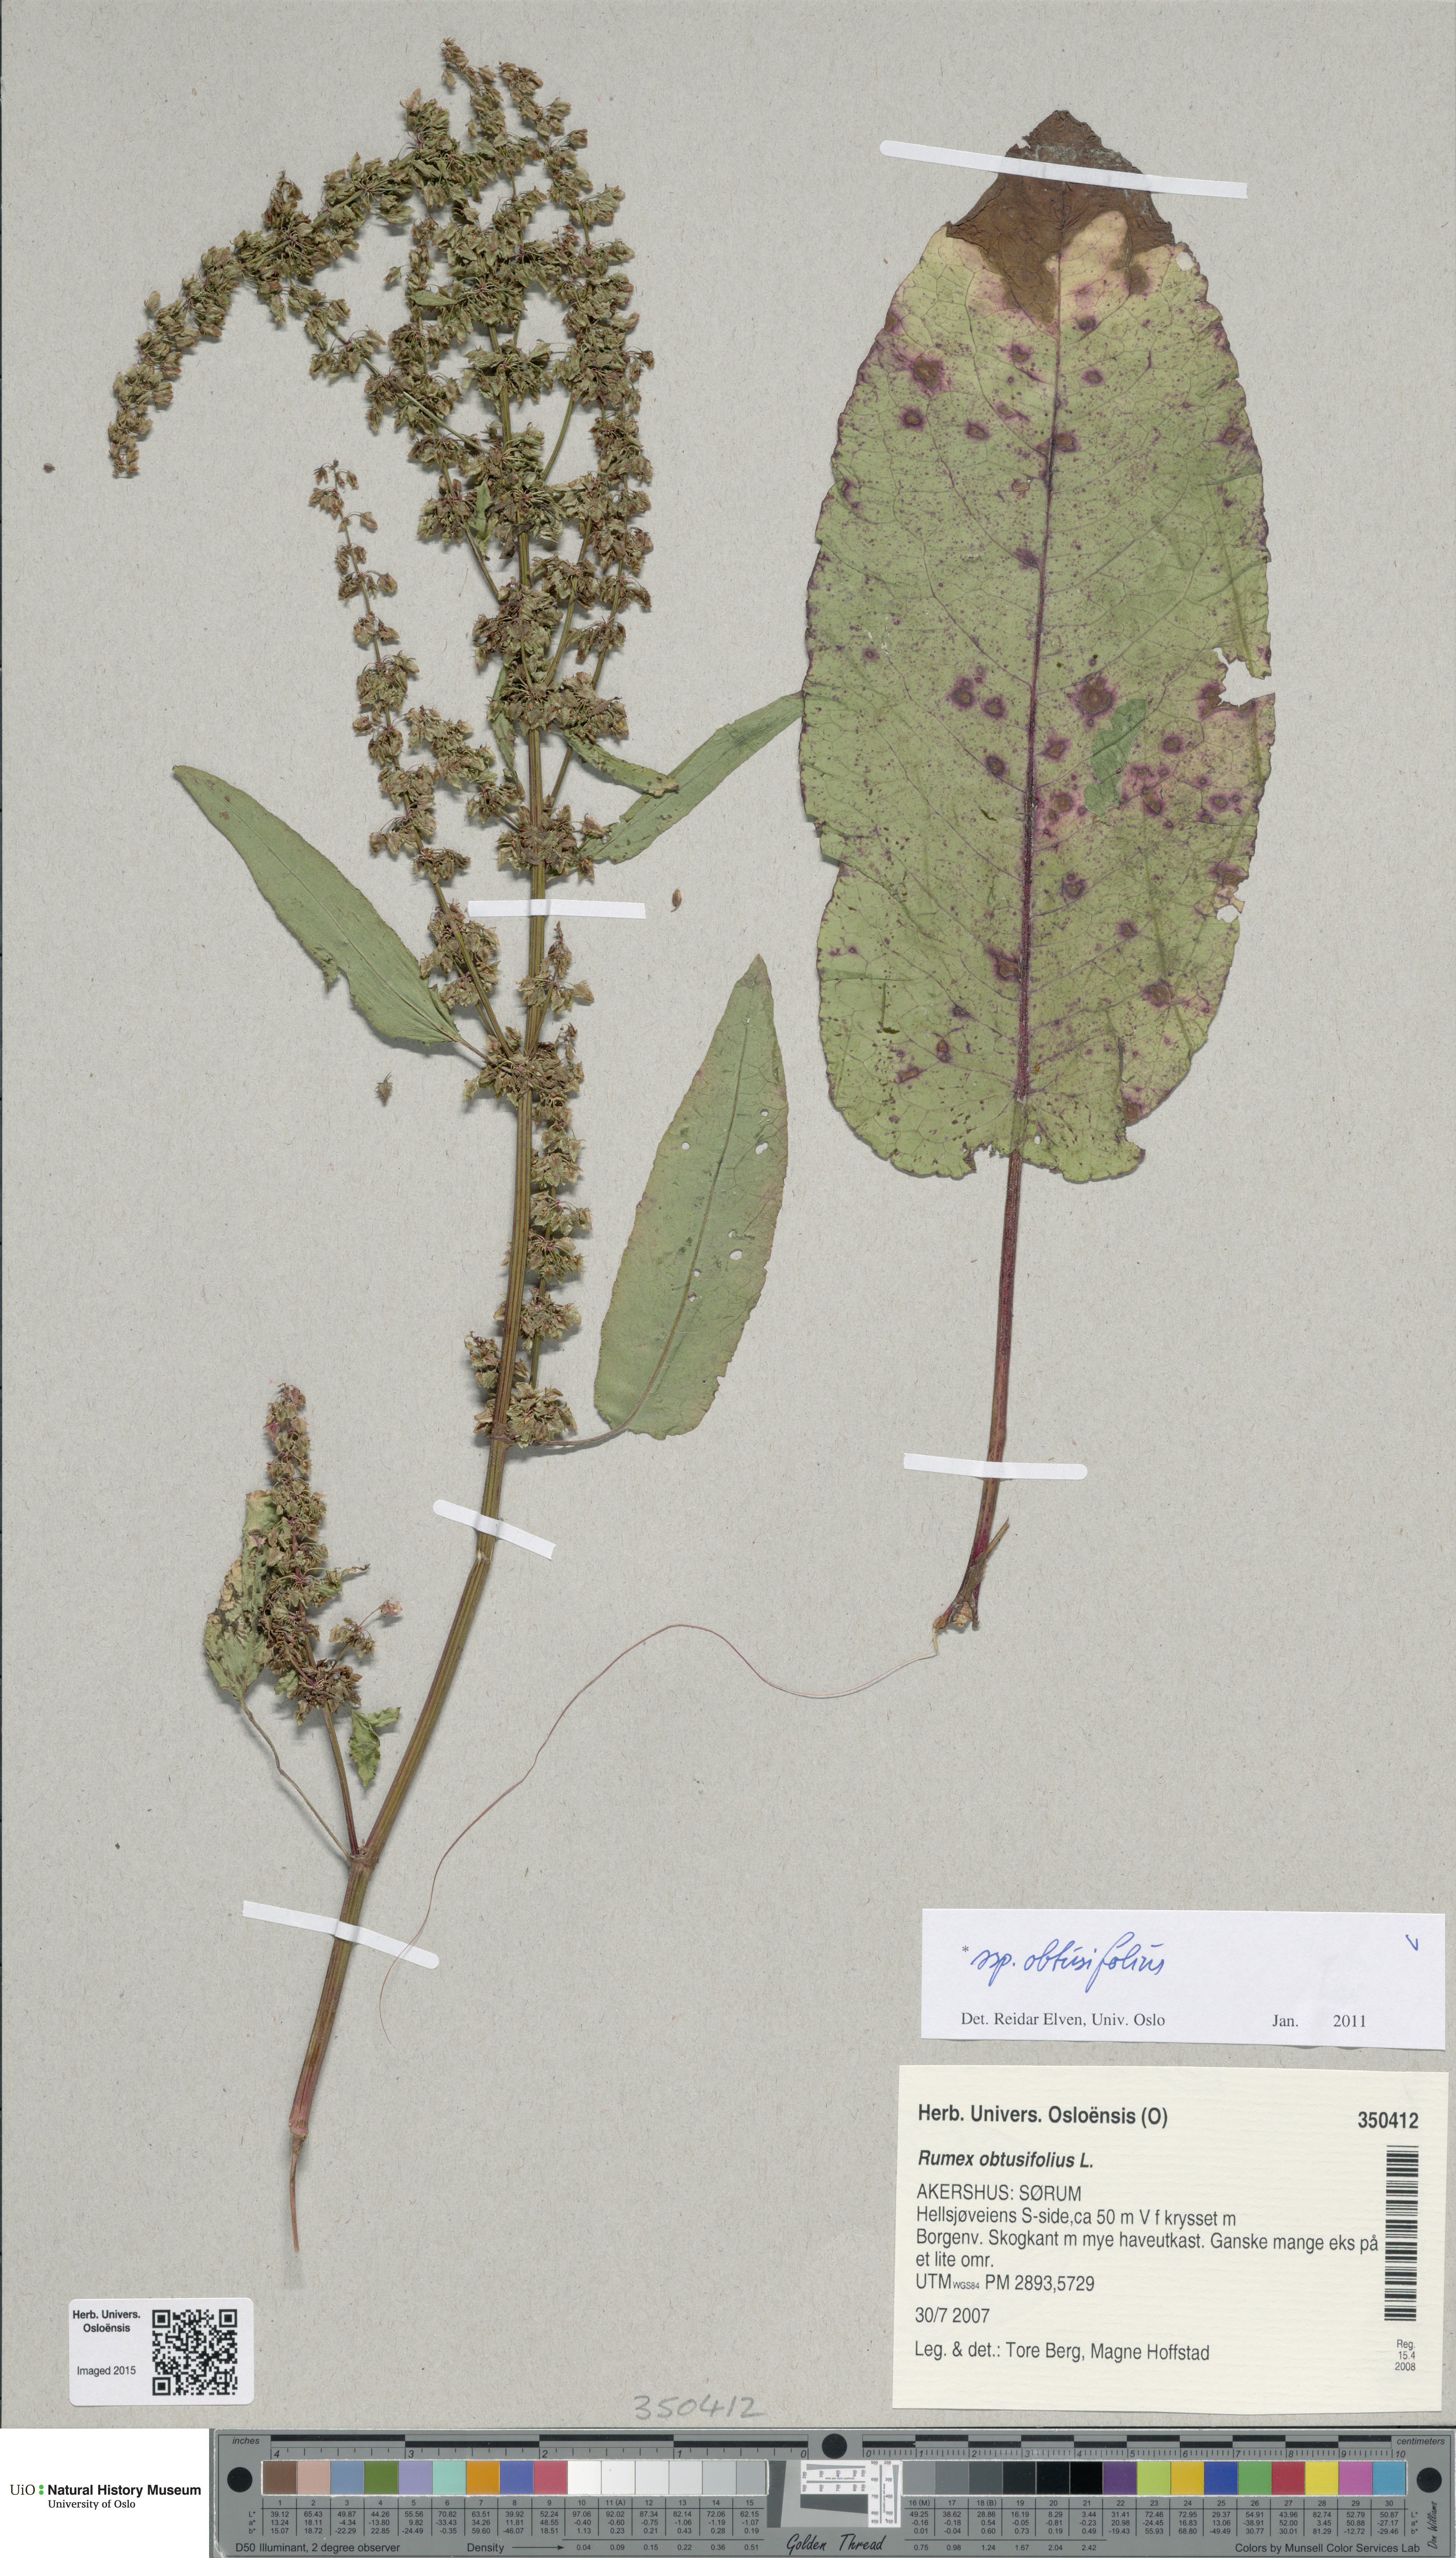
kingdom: Plantae
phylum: Tracheophyta
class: Magnoliopsida
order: Caryophyllales
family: Polygonaceae
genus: Rumex
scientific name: Rumex obtusifolius
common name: Bitter dock
